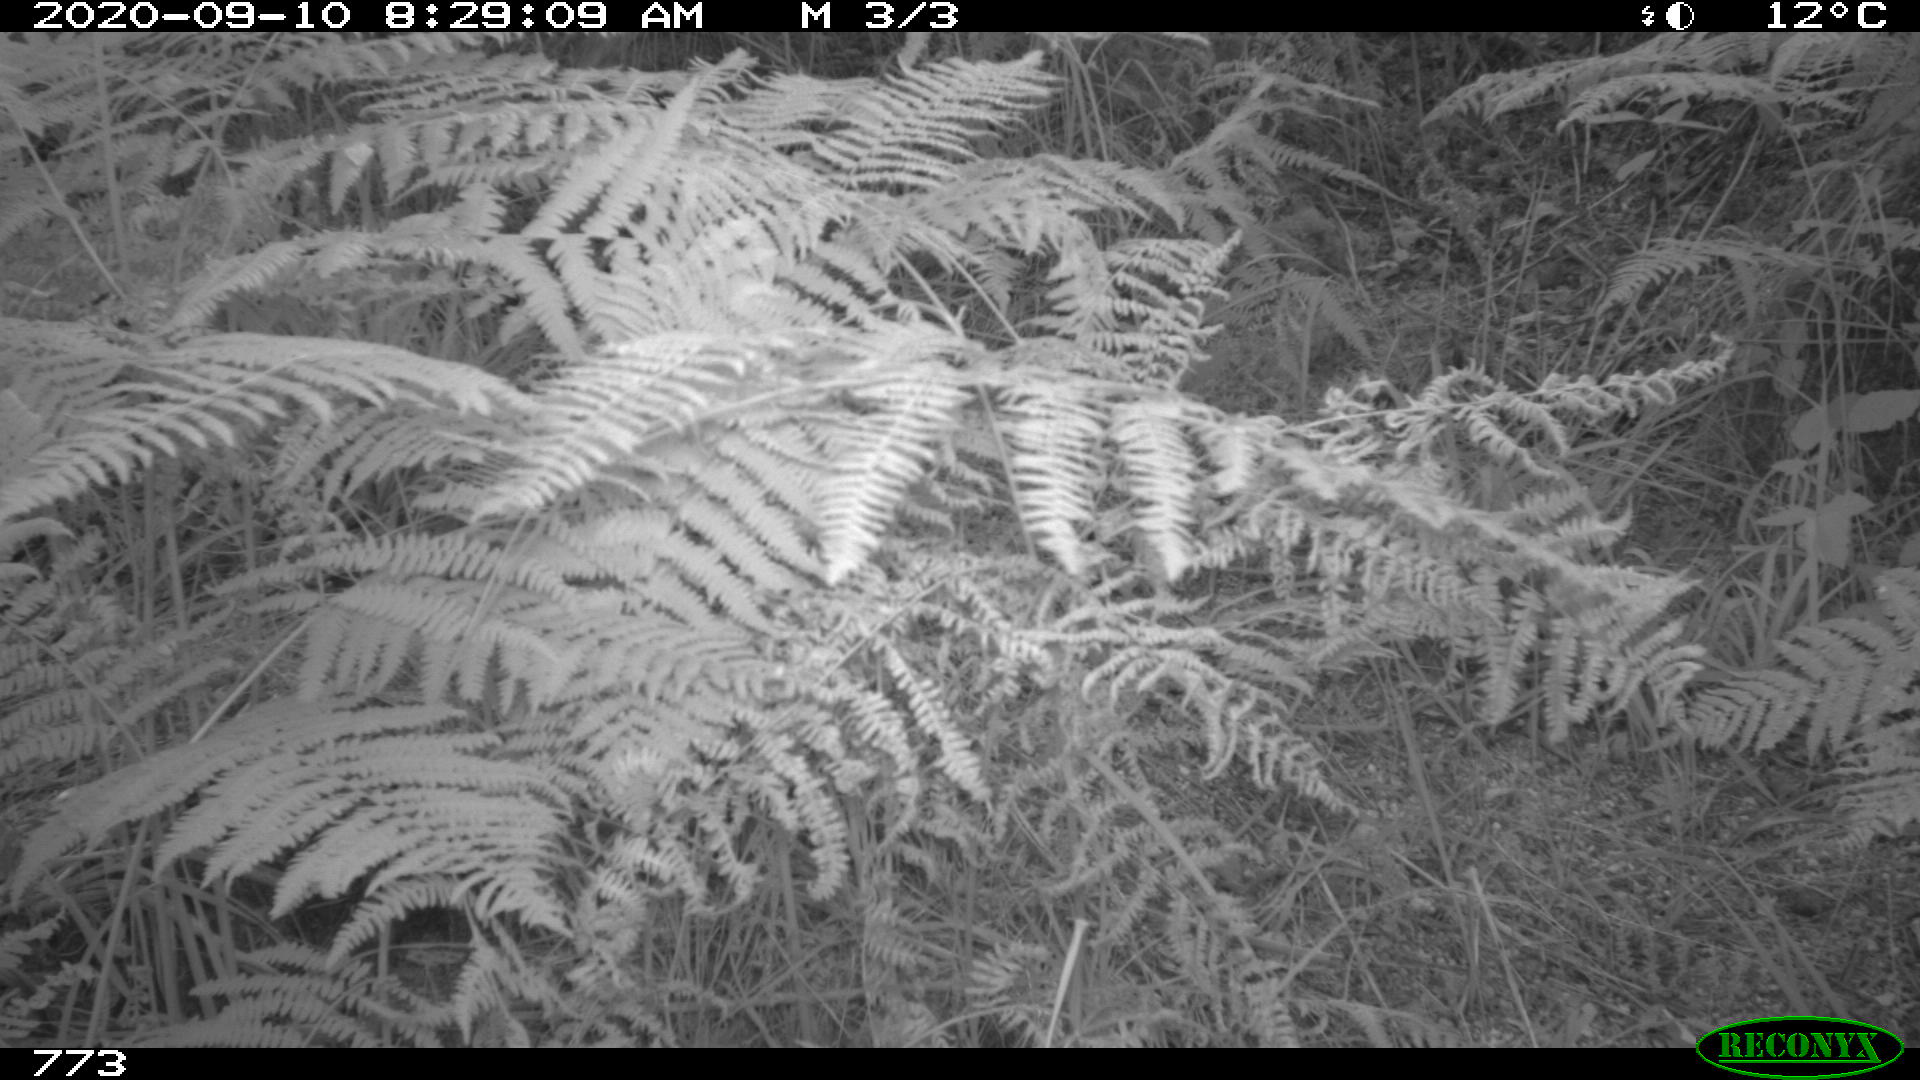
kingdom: Animalia
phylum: Chordata
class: Mammalia
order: Artiodactyla
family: Suidae
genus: Sus
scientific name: Sus scrofa
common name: Wild boar
